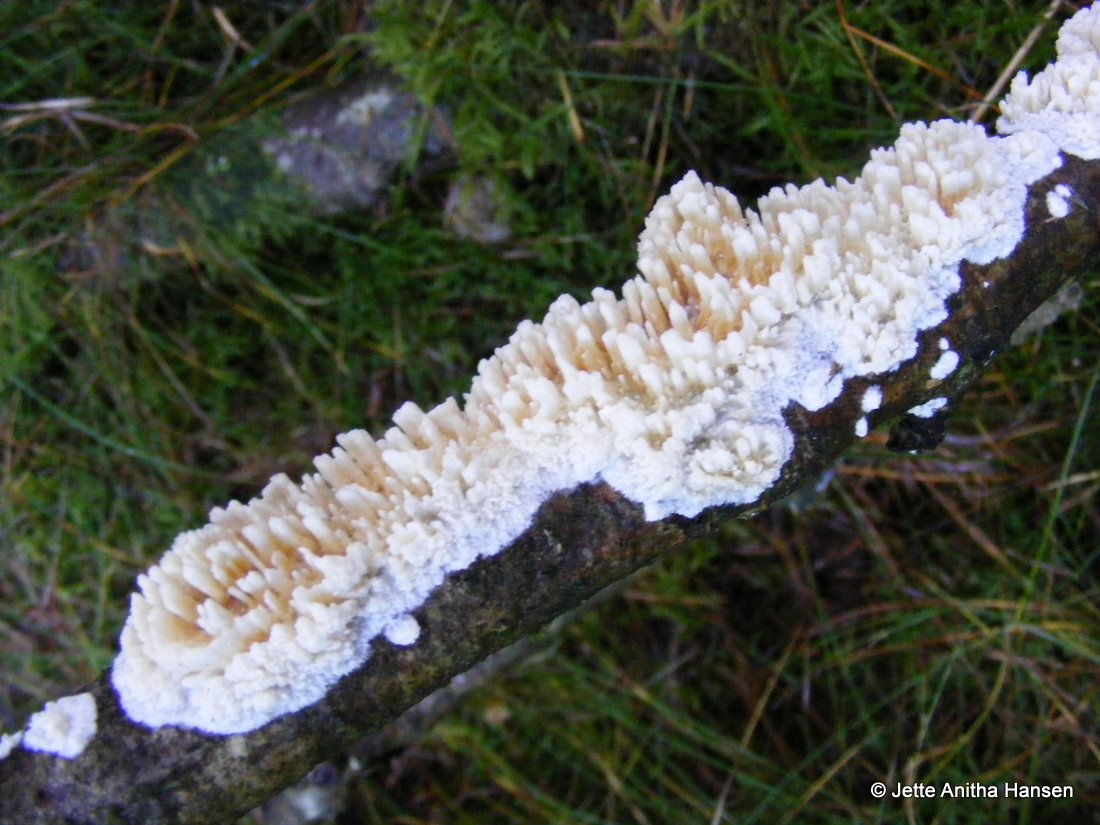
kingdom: Fungi
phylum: Basidiomycota
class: Agaricomycetes
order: Hymenochaetales
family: Schizoporaceae
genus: Xylodon
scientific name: Xylodon radula
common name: grovtandet kalkskind
